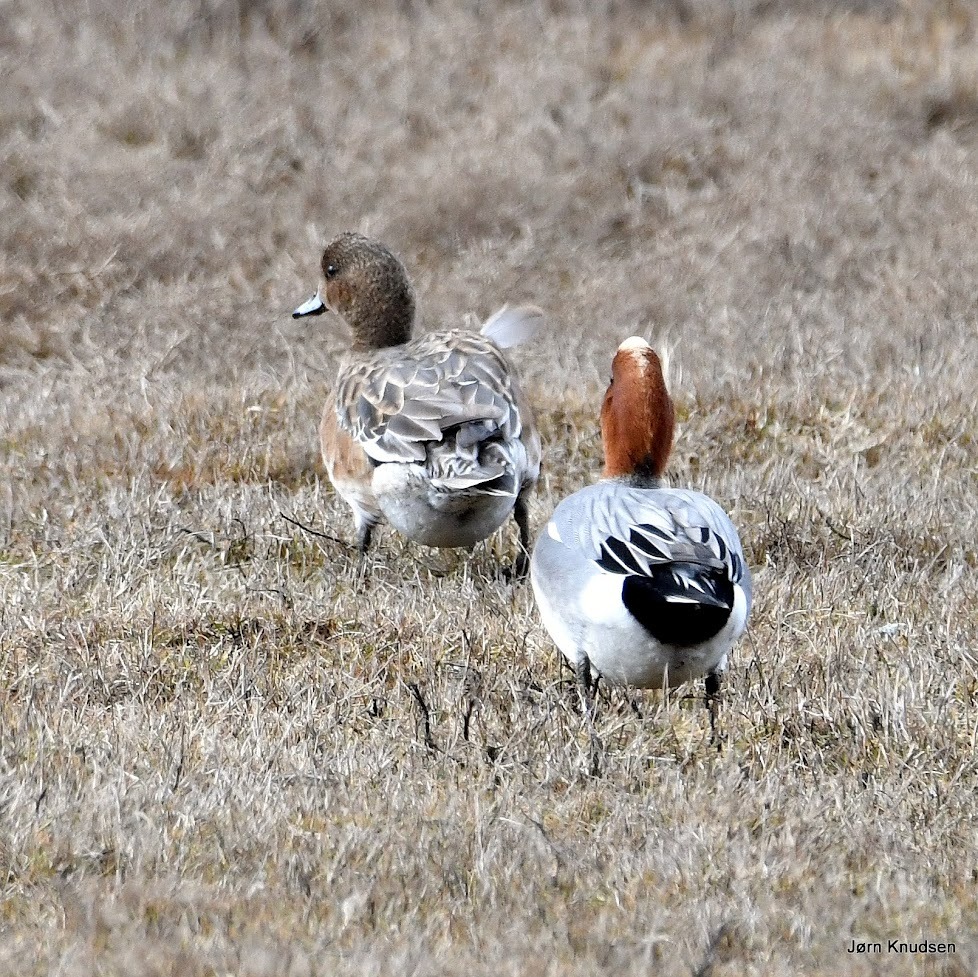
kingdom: Animalia
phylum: Chordata
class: Aves
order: Anseriformes
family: Anatidae
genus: Mareca
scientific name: Mareca penelope
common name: Pibeand
